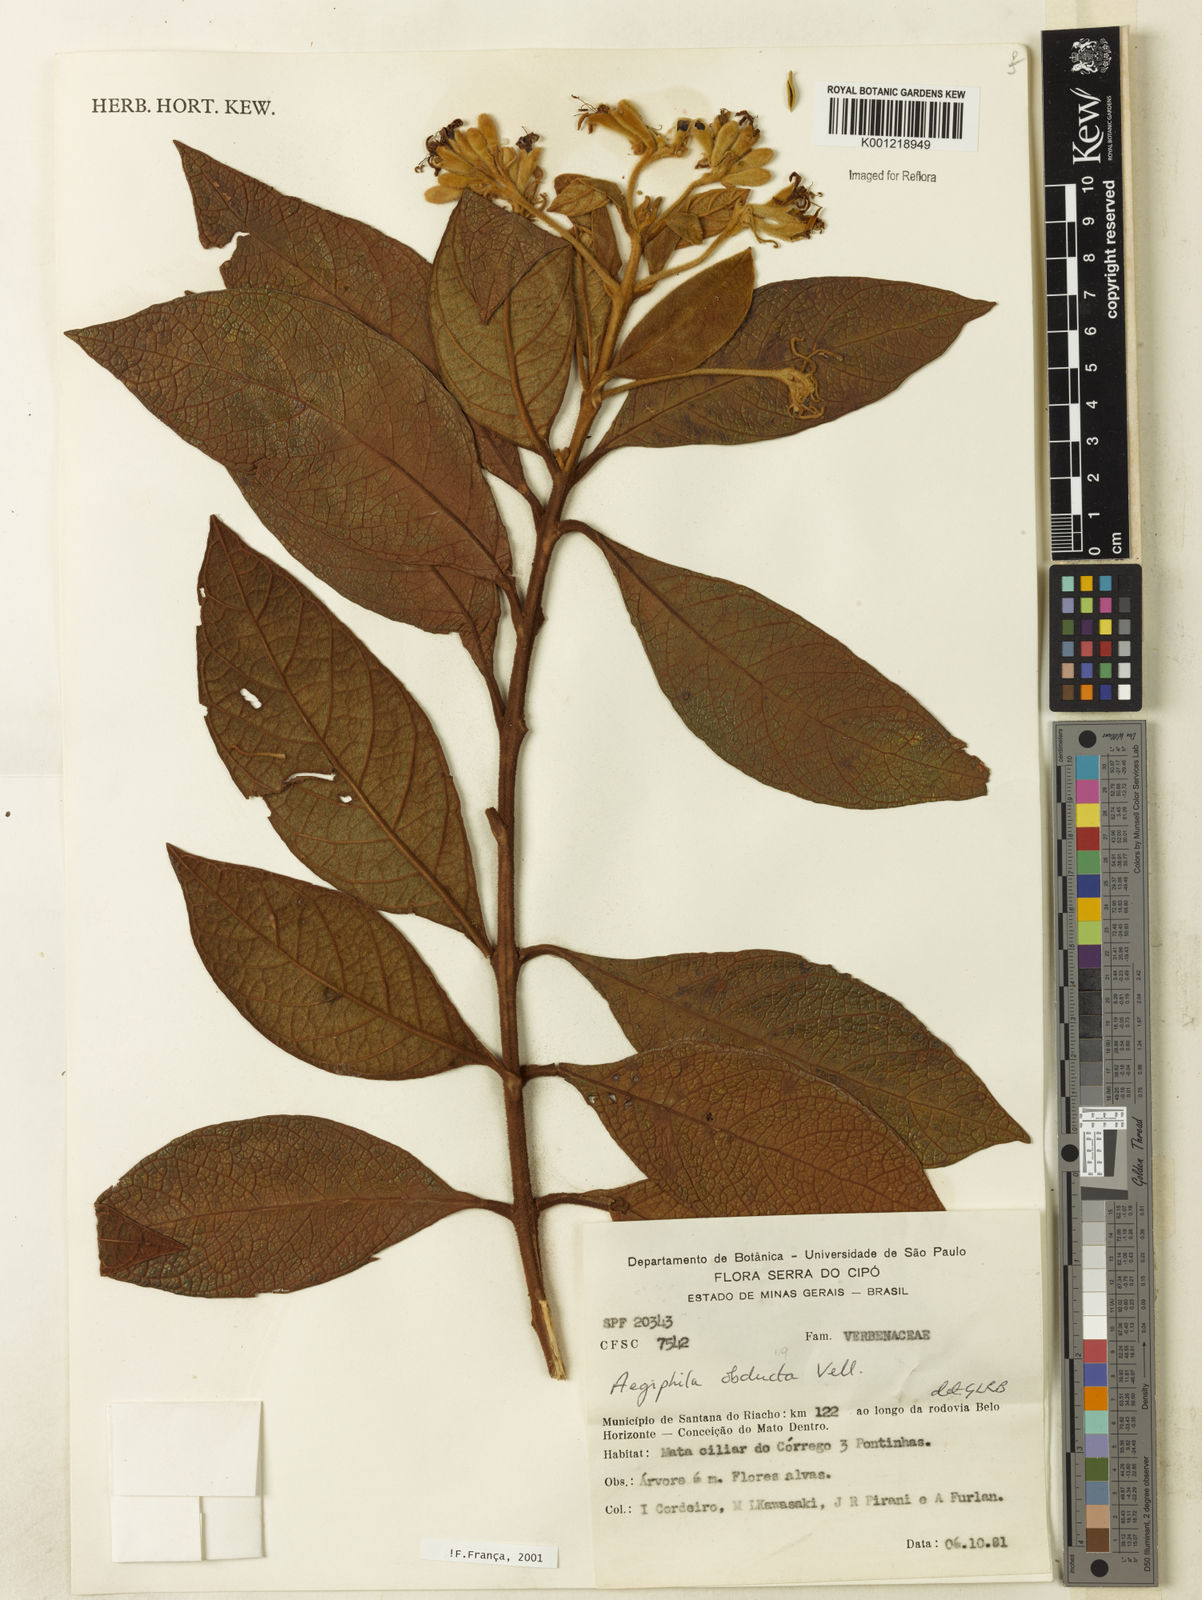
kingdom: Plantae
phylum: Tracheophyta
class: Magnoliopsida
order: Lamiales
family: Lamiaceae
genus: Aegiphila
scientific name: Aegiphila obducta
